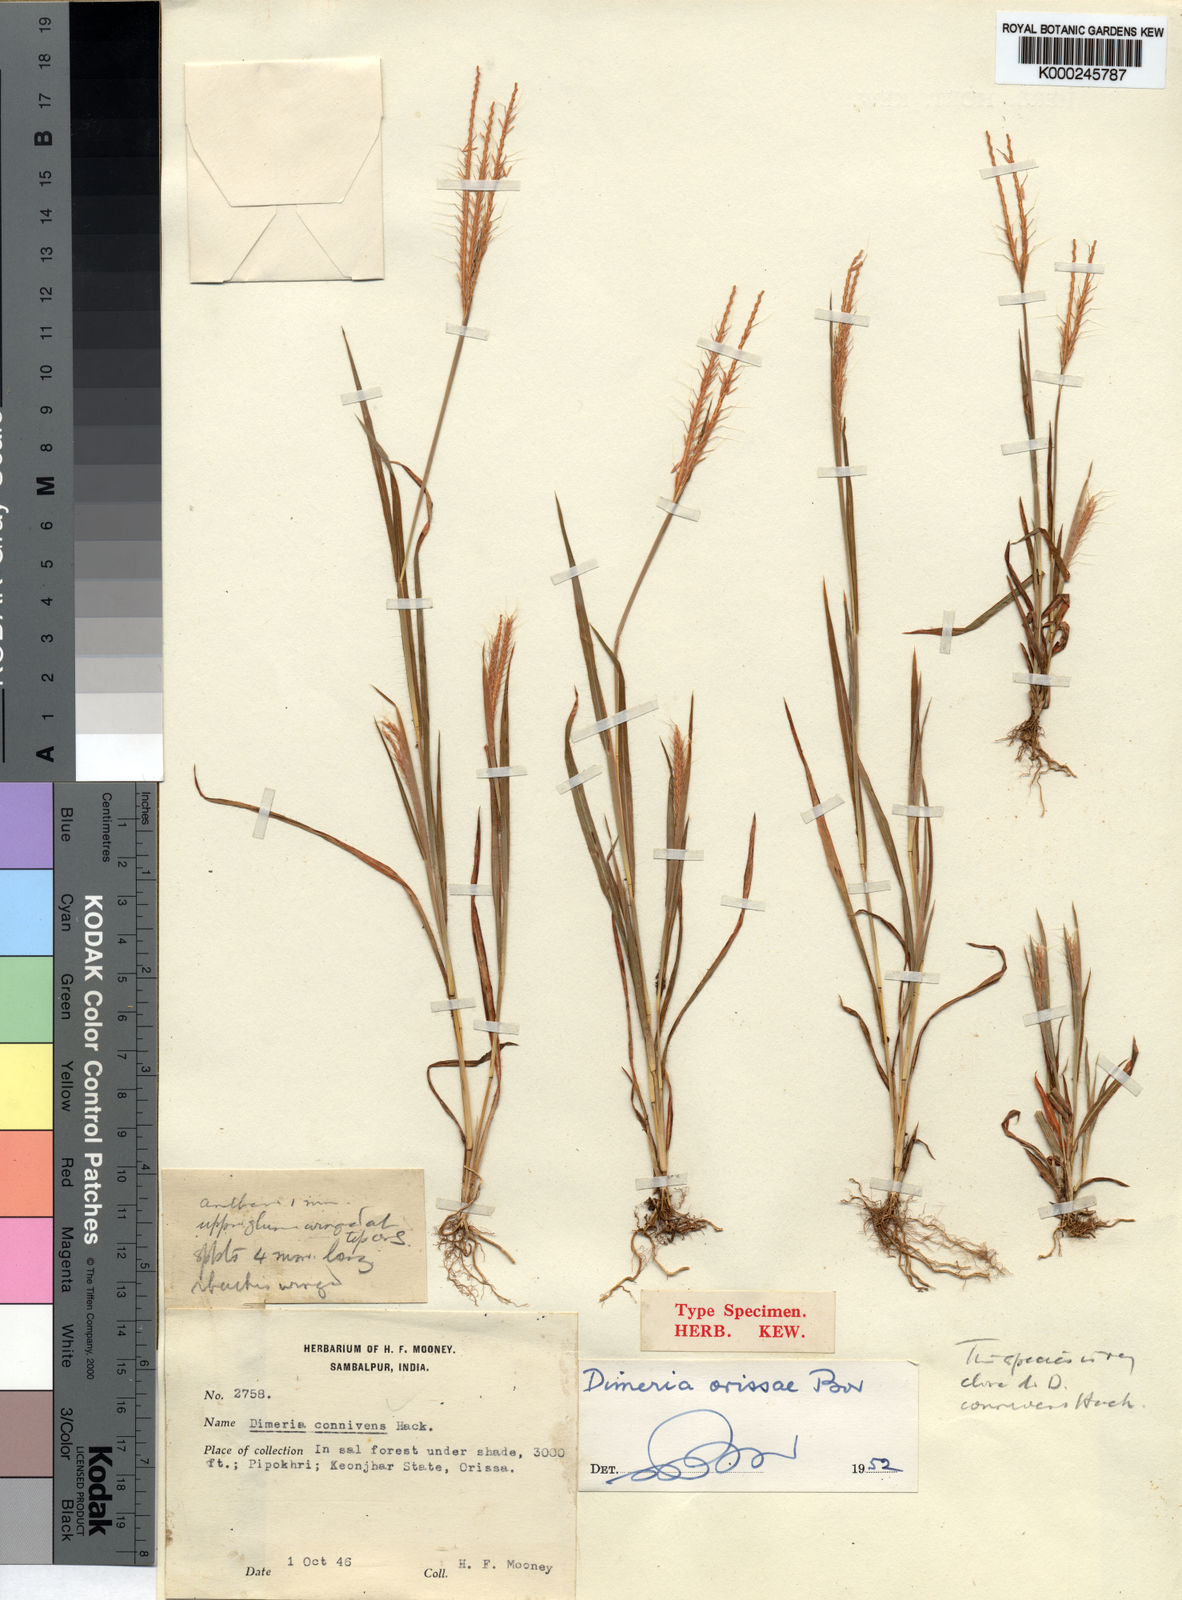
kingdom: Plantae
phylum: Tracheophyta
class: Liliopsida
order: Poales
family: Poaceae
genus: Dimeria
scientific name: Dimeria orissae
